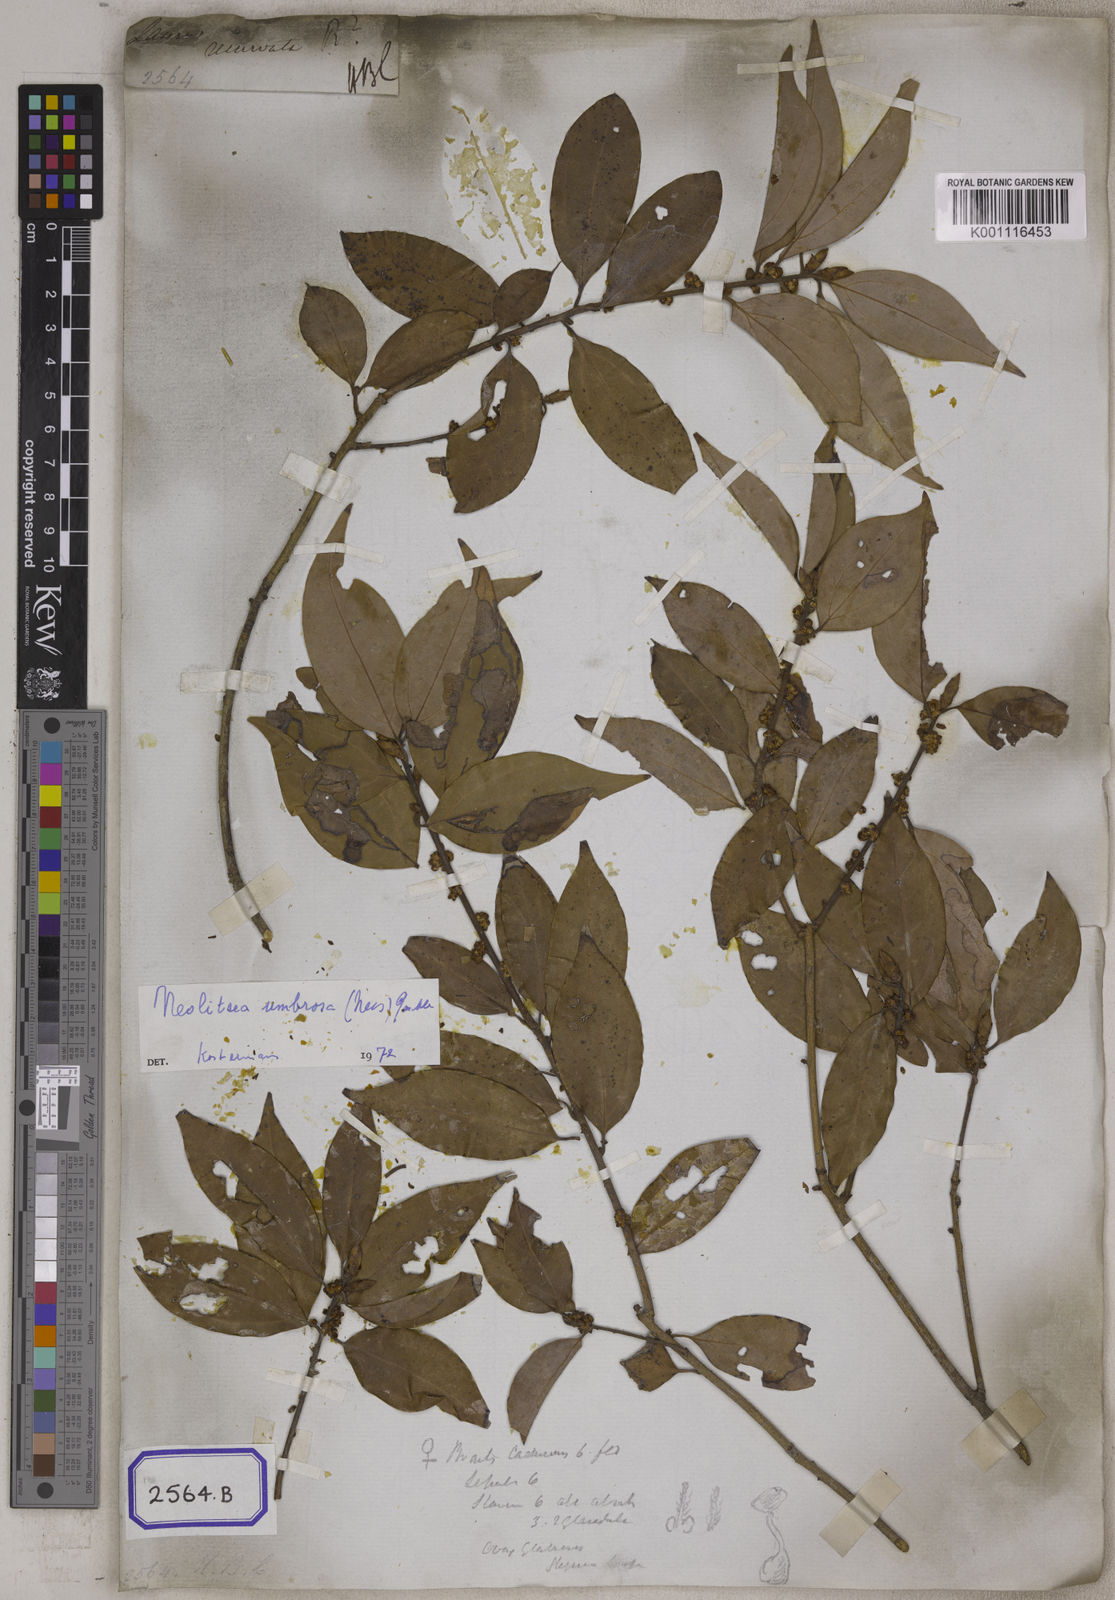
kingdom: Plantae
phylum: Tracheophyta
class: Magnoliopsida
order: Laurales
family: Lauraceae
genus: Litsea
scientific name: Litsea
